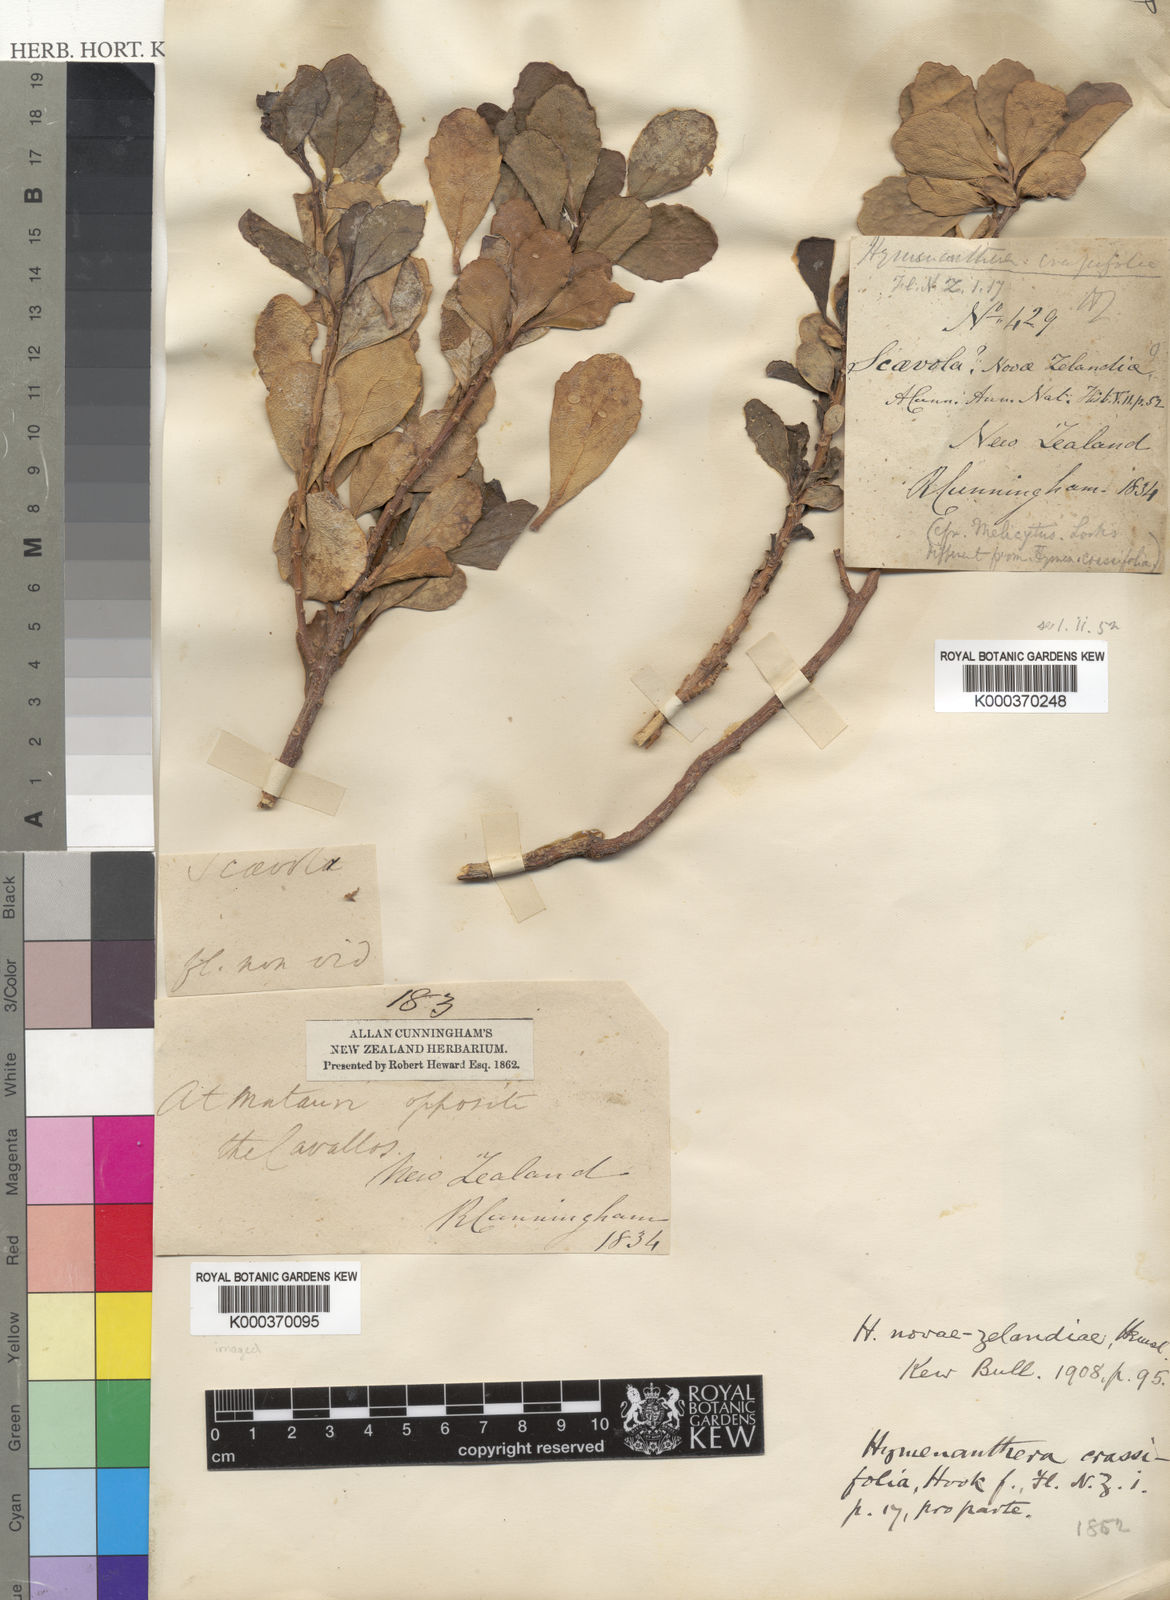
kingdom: Plantae
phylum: Tracheophyta
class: Magnoliopsida
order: Malpighiales
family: Violaceae
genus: Melicytus
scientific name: Melicytus novae-zelandiae
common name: Coastal mahoe
